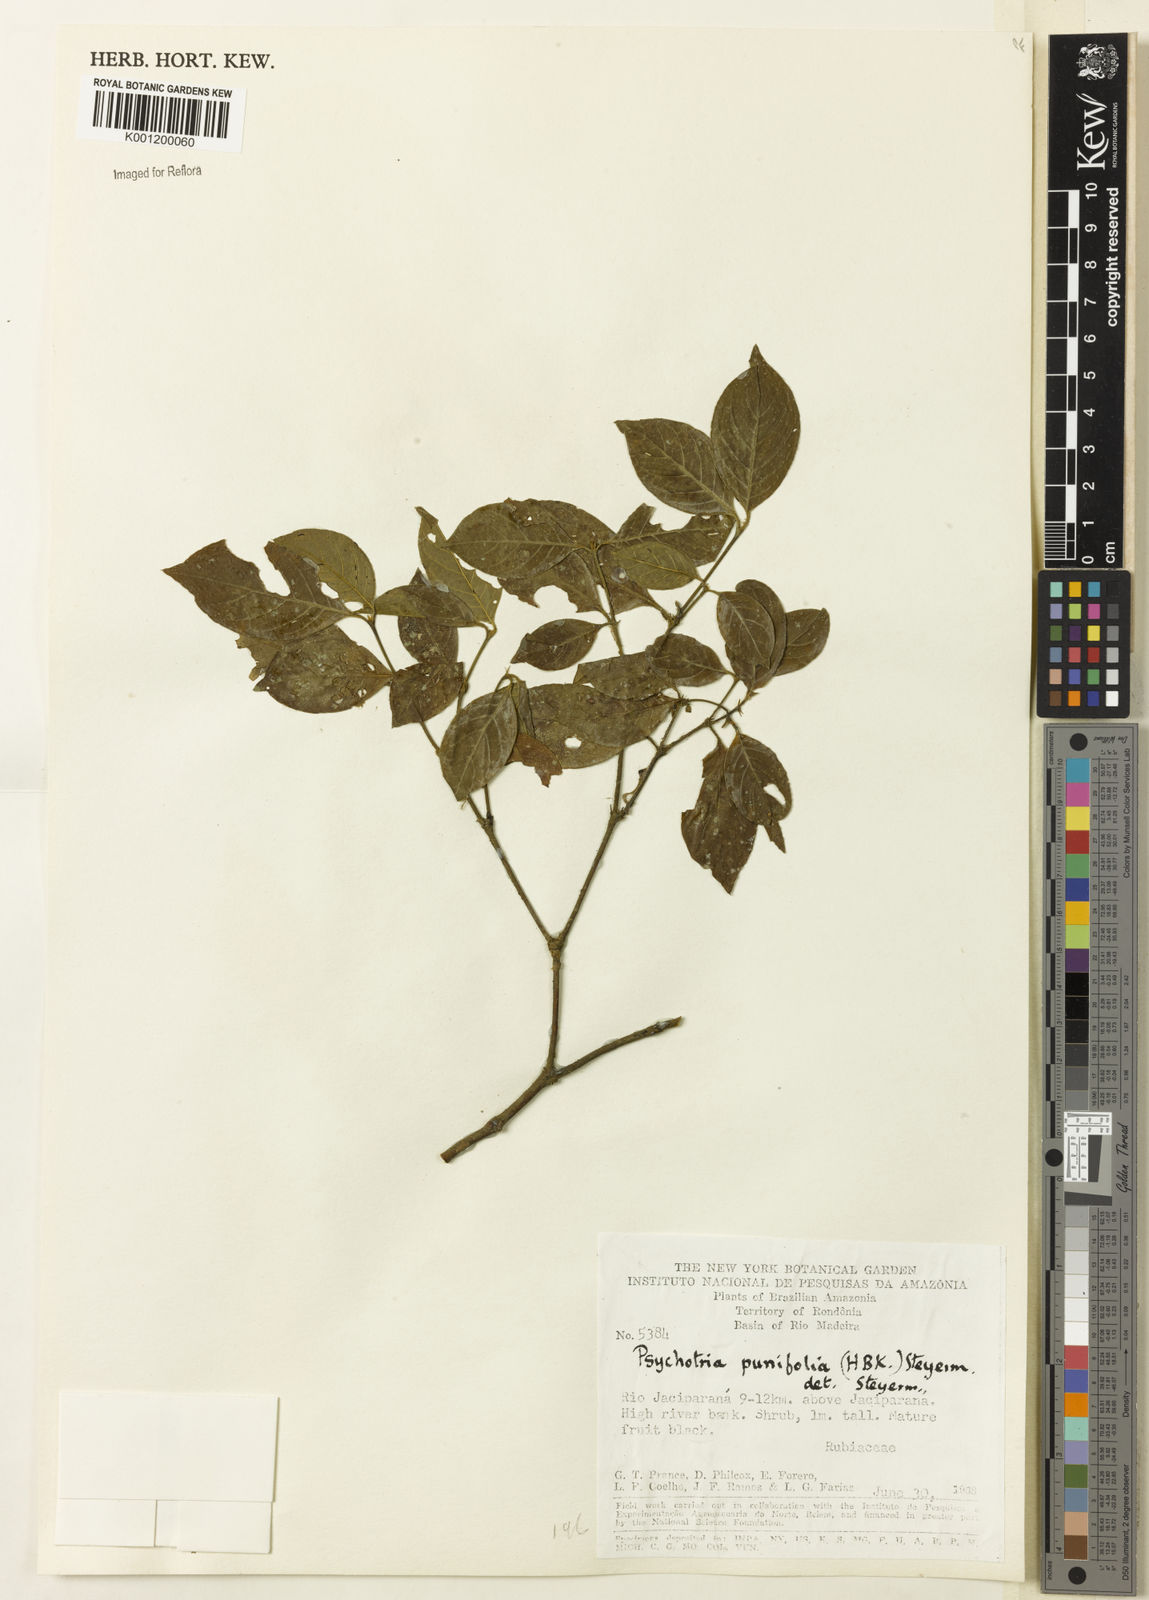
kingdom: Plantae
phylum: Tracheophyta
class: Magnoliopsida
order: Gentianales
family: Rubiaceae
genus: Palicourea
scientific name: Palicourea prunifolia
